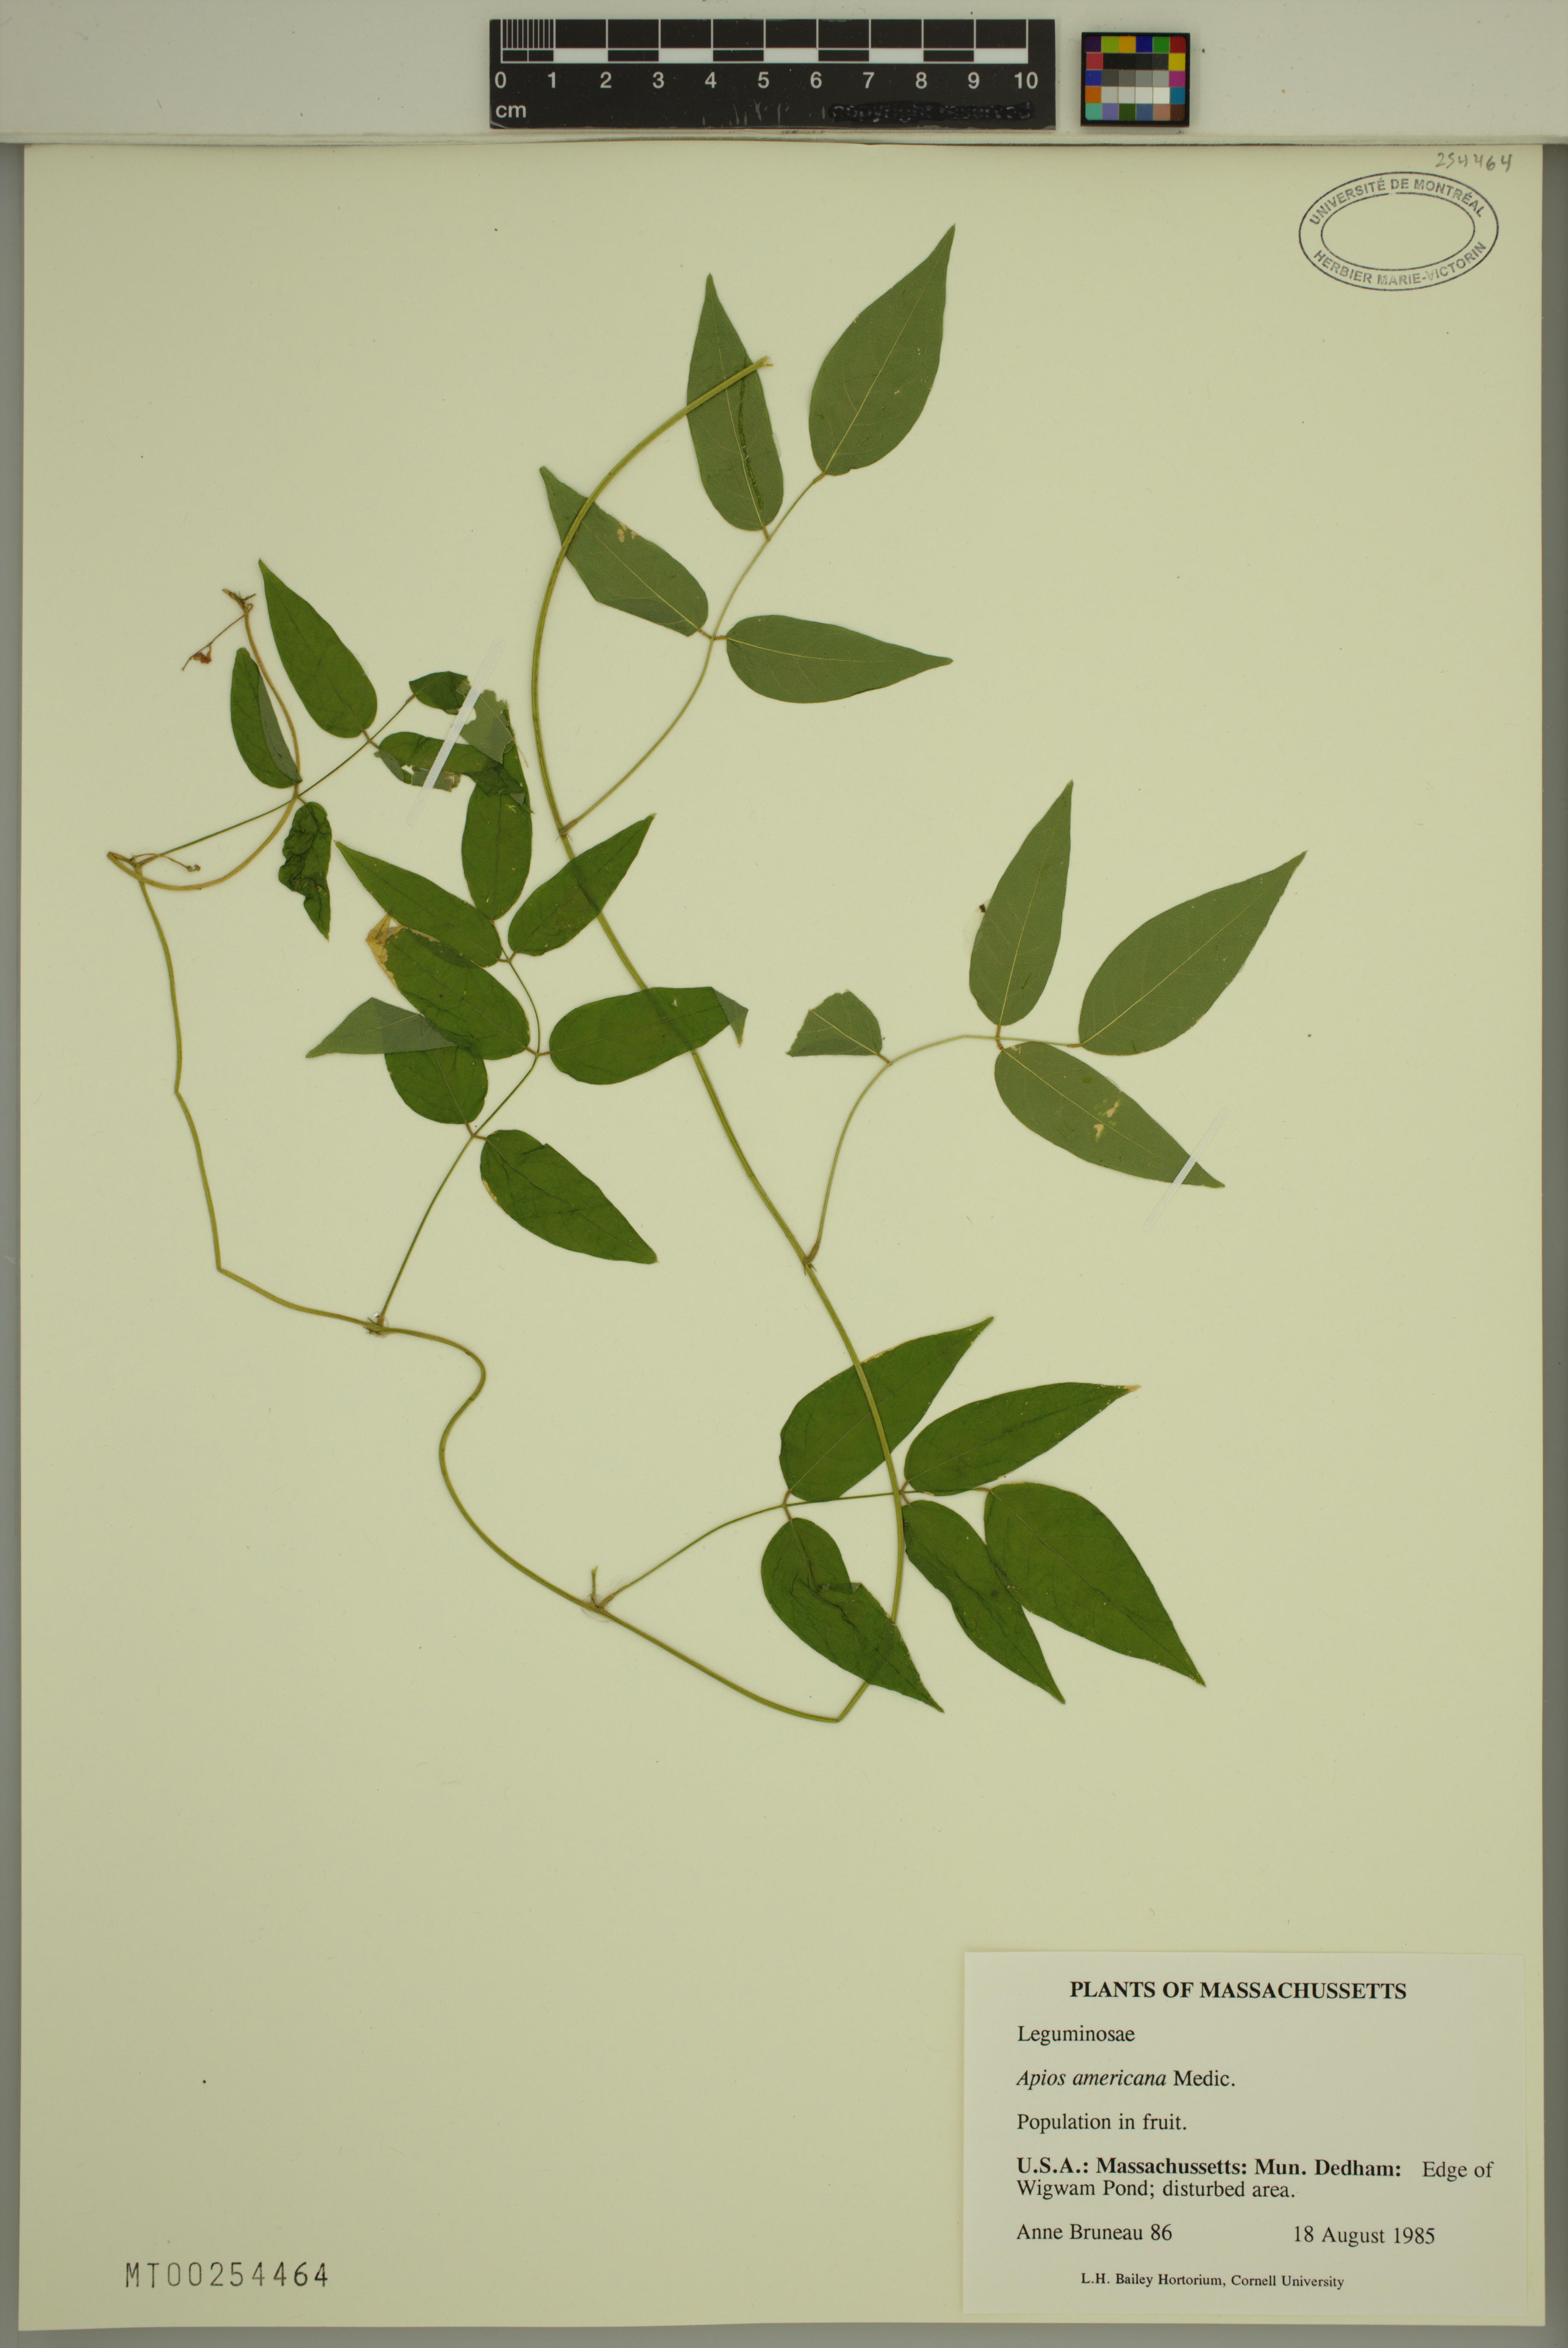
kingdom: Plantae
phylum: Tracheophyta
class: Magnoliopsida
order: Fabales
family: Fabaceae
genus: Apios
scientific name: Apios americana
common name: American potato-bean
